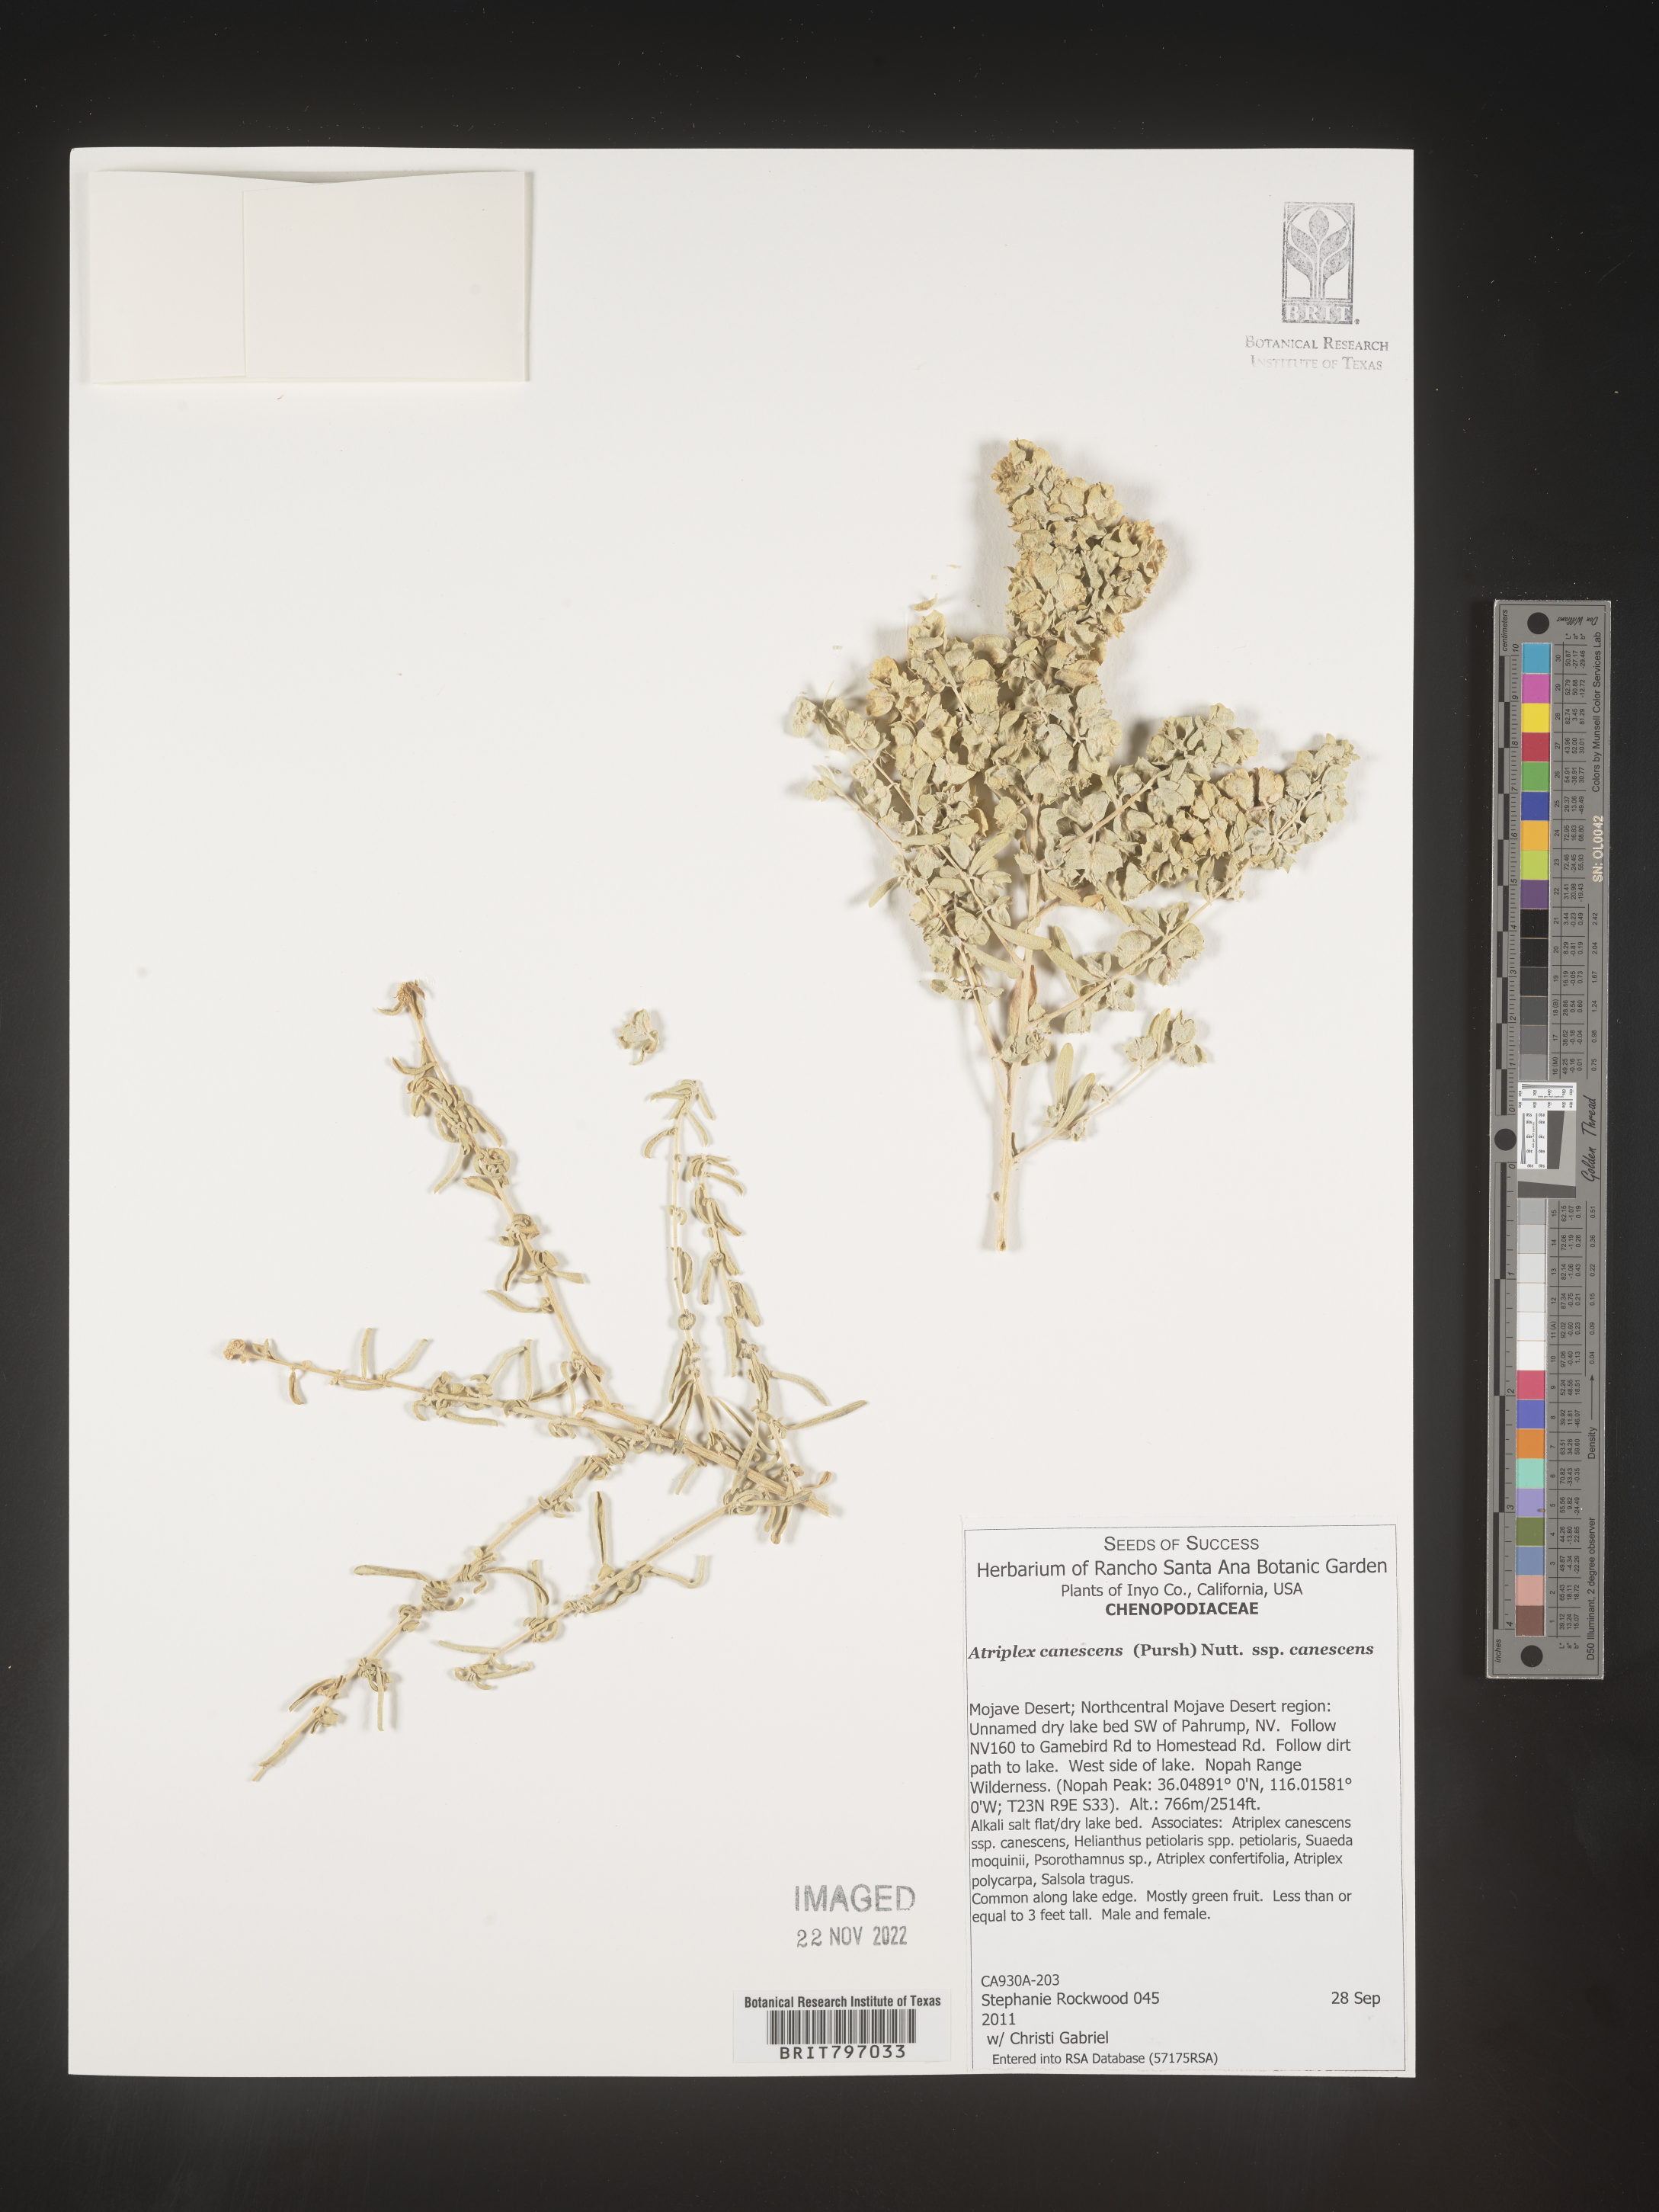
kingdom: Plantae
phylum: Tracheophyta
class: Magnoliopsida
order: Caryophyllales
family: Amaranthaceae
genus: Atriplex
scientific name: Atriplex canescens
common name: Four-wing saltbush
